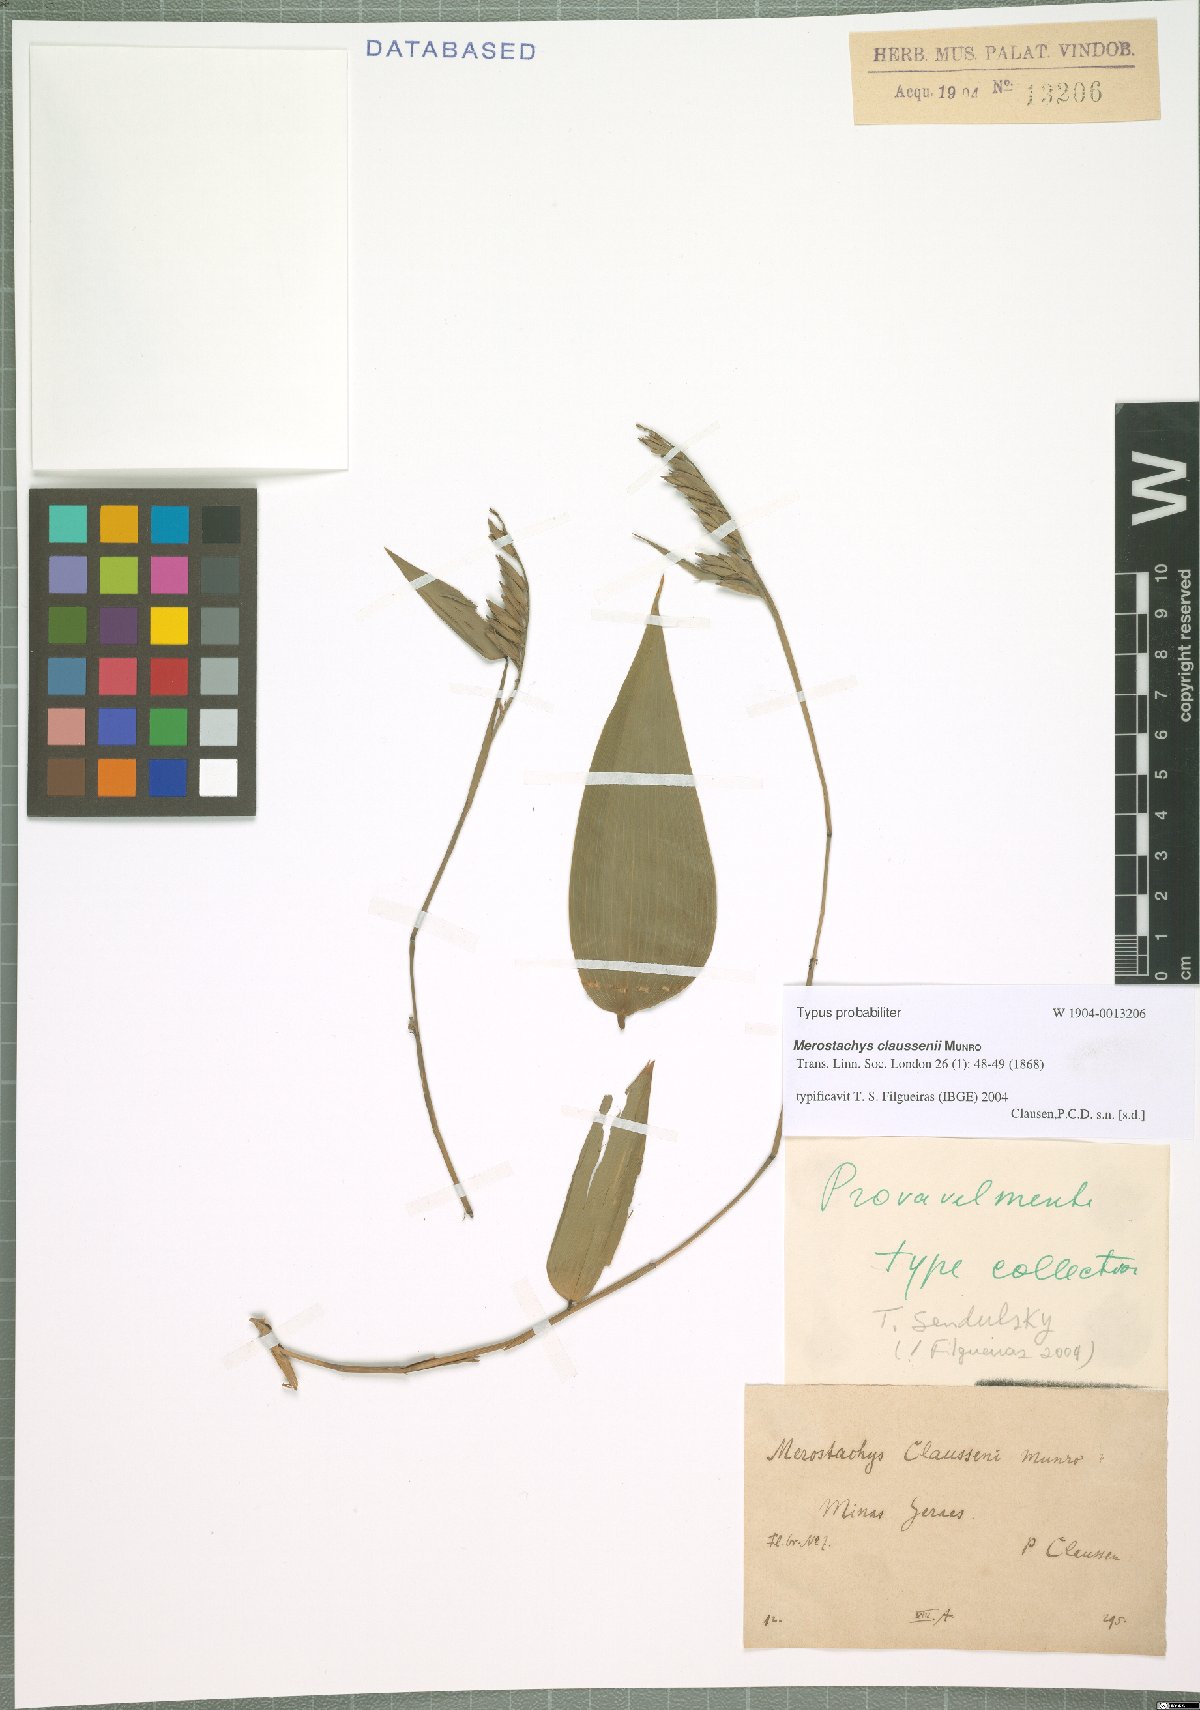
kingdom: Plantae
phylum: Tracheophyta
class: Liliopsida
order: Poales
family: Poaceae
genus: Merostachys
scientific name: Merostachys claussenii
